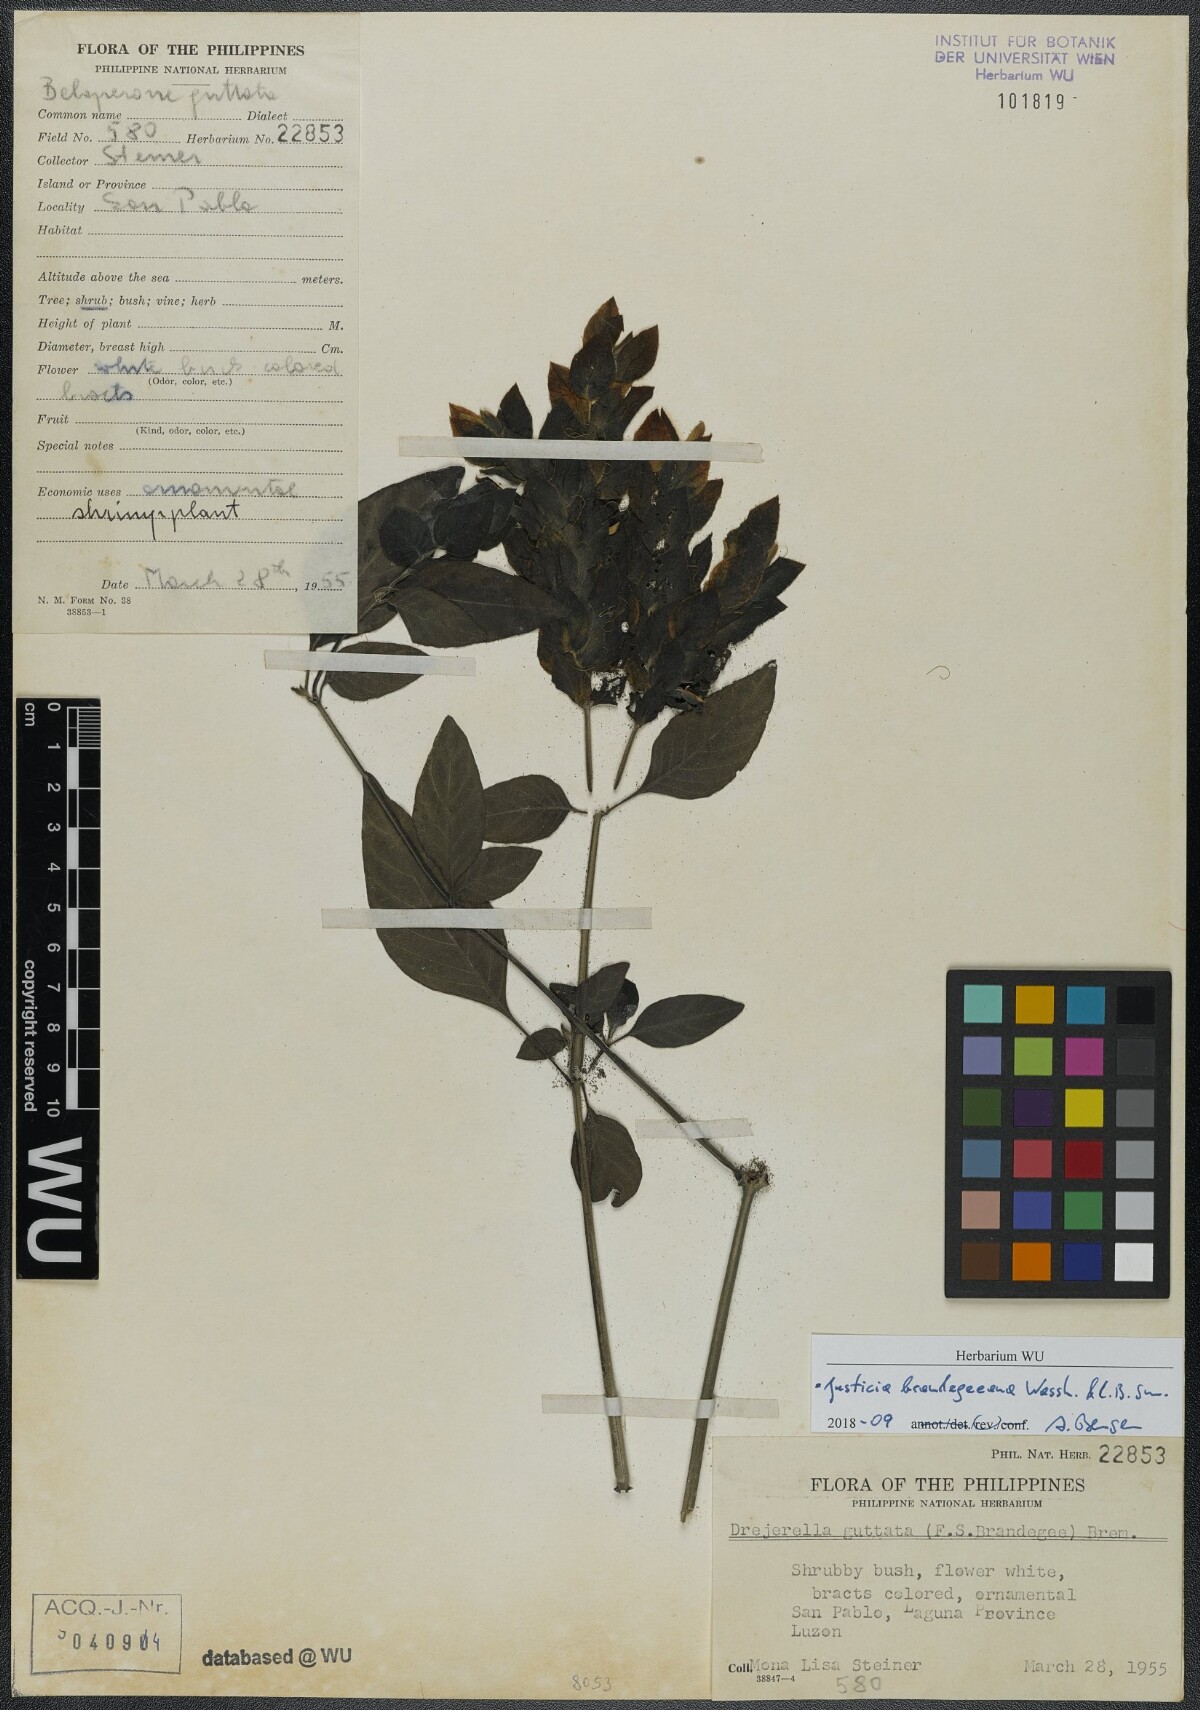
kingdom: Plantae
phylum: Tracheophyta
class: Magnoliopsida
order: Lamiales
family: Acanthaceae
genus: Justicia
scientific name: Justicia brandegeeana
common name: Shrimpplant
